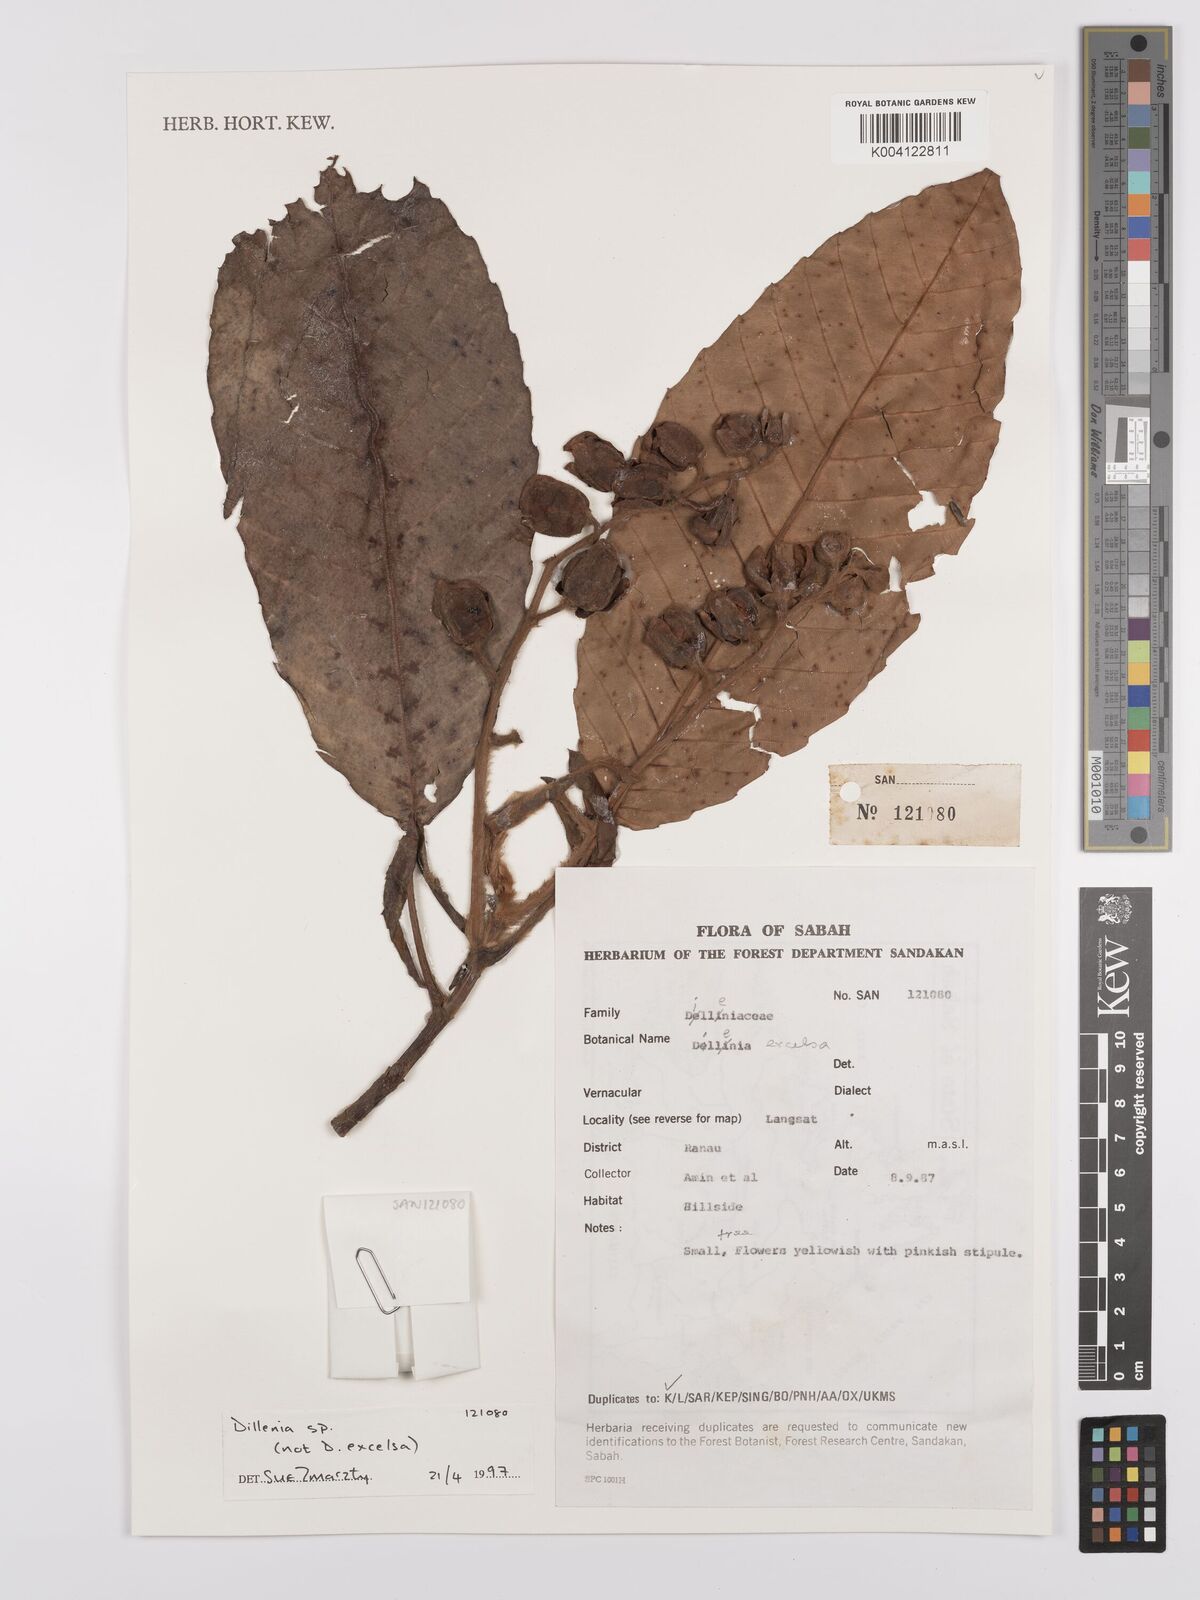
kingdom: Plantae
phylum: Tracheophyta
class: Magnoliopsida
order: Dilleniales
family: Dilleniaceae
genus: Dillenia
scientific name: Dillenia
